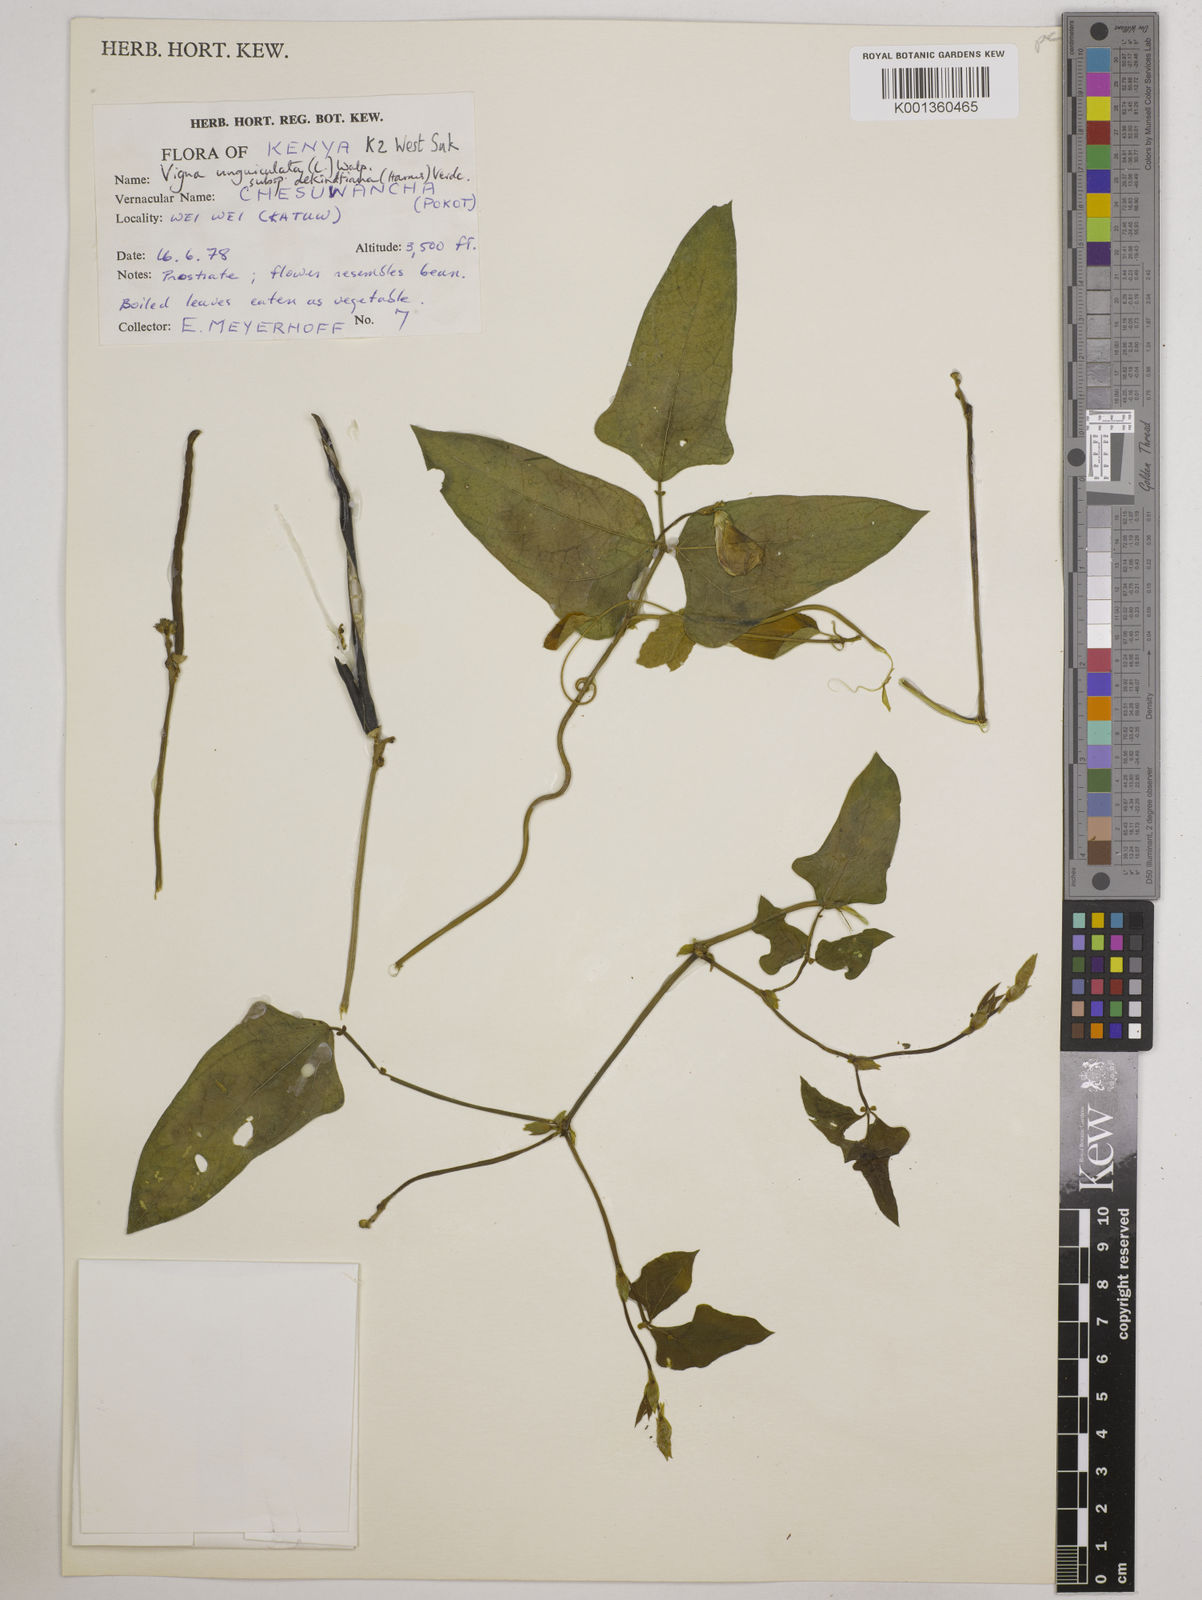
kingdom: Plantae
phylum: Tracheophyta
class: Magnoliopsida
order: Fabales
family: Fabaceae
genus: Vigna
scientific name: Vigna
